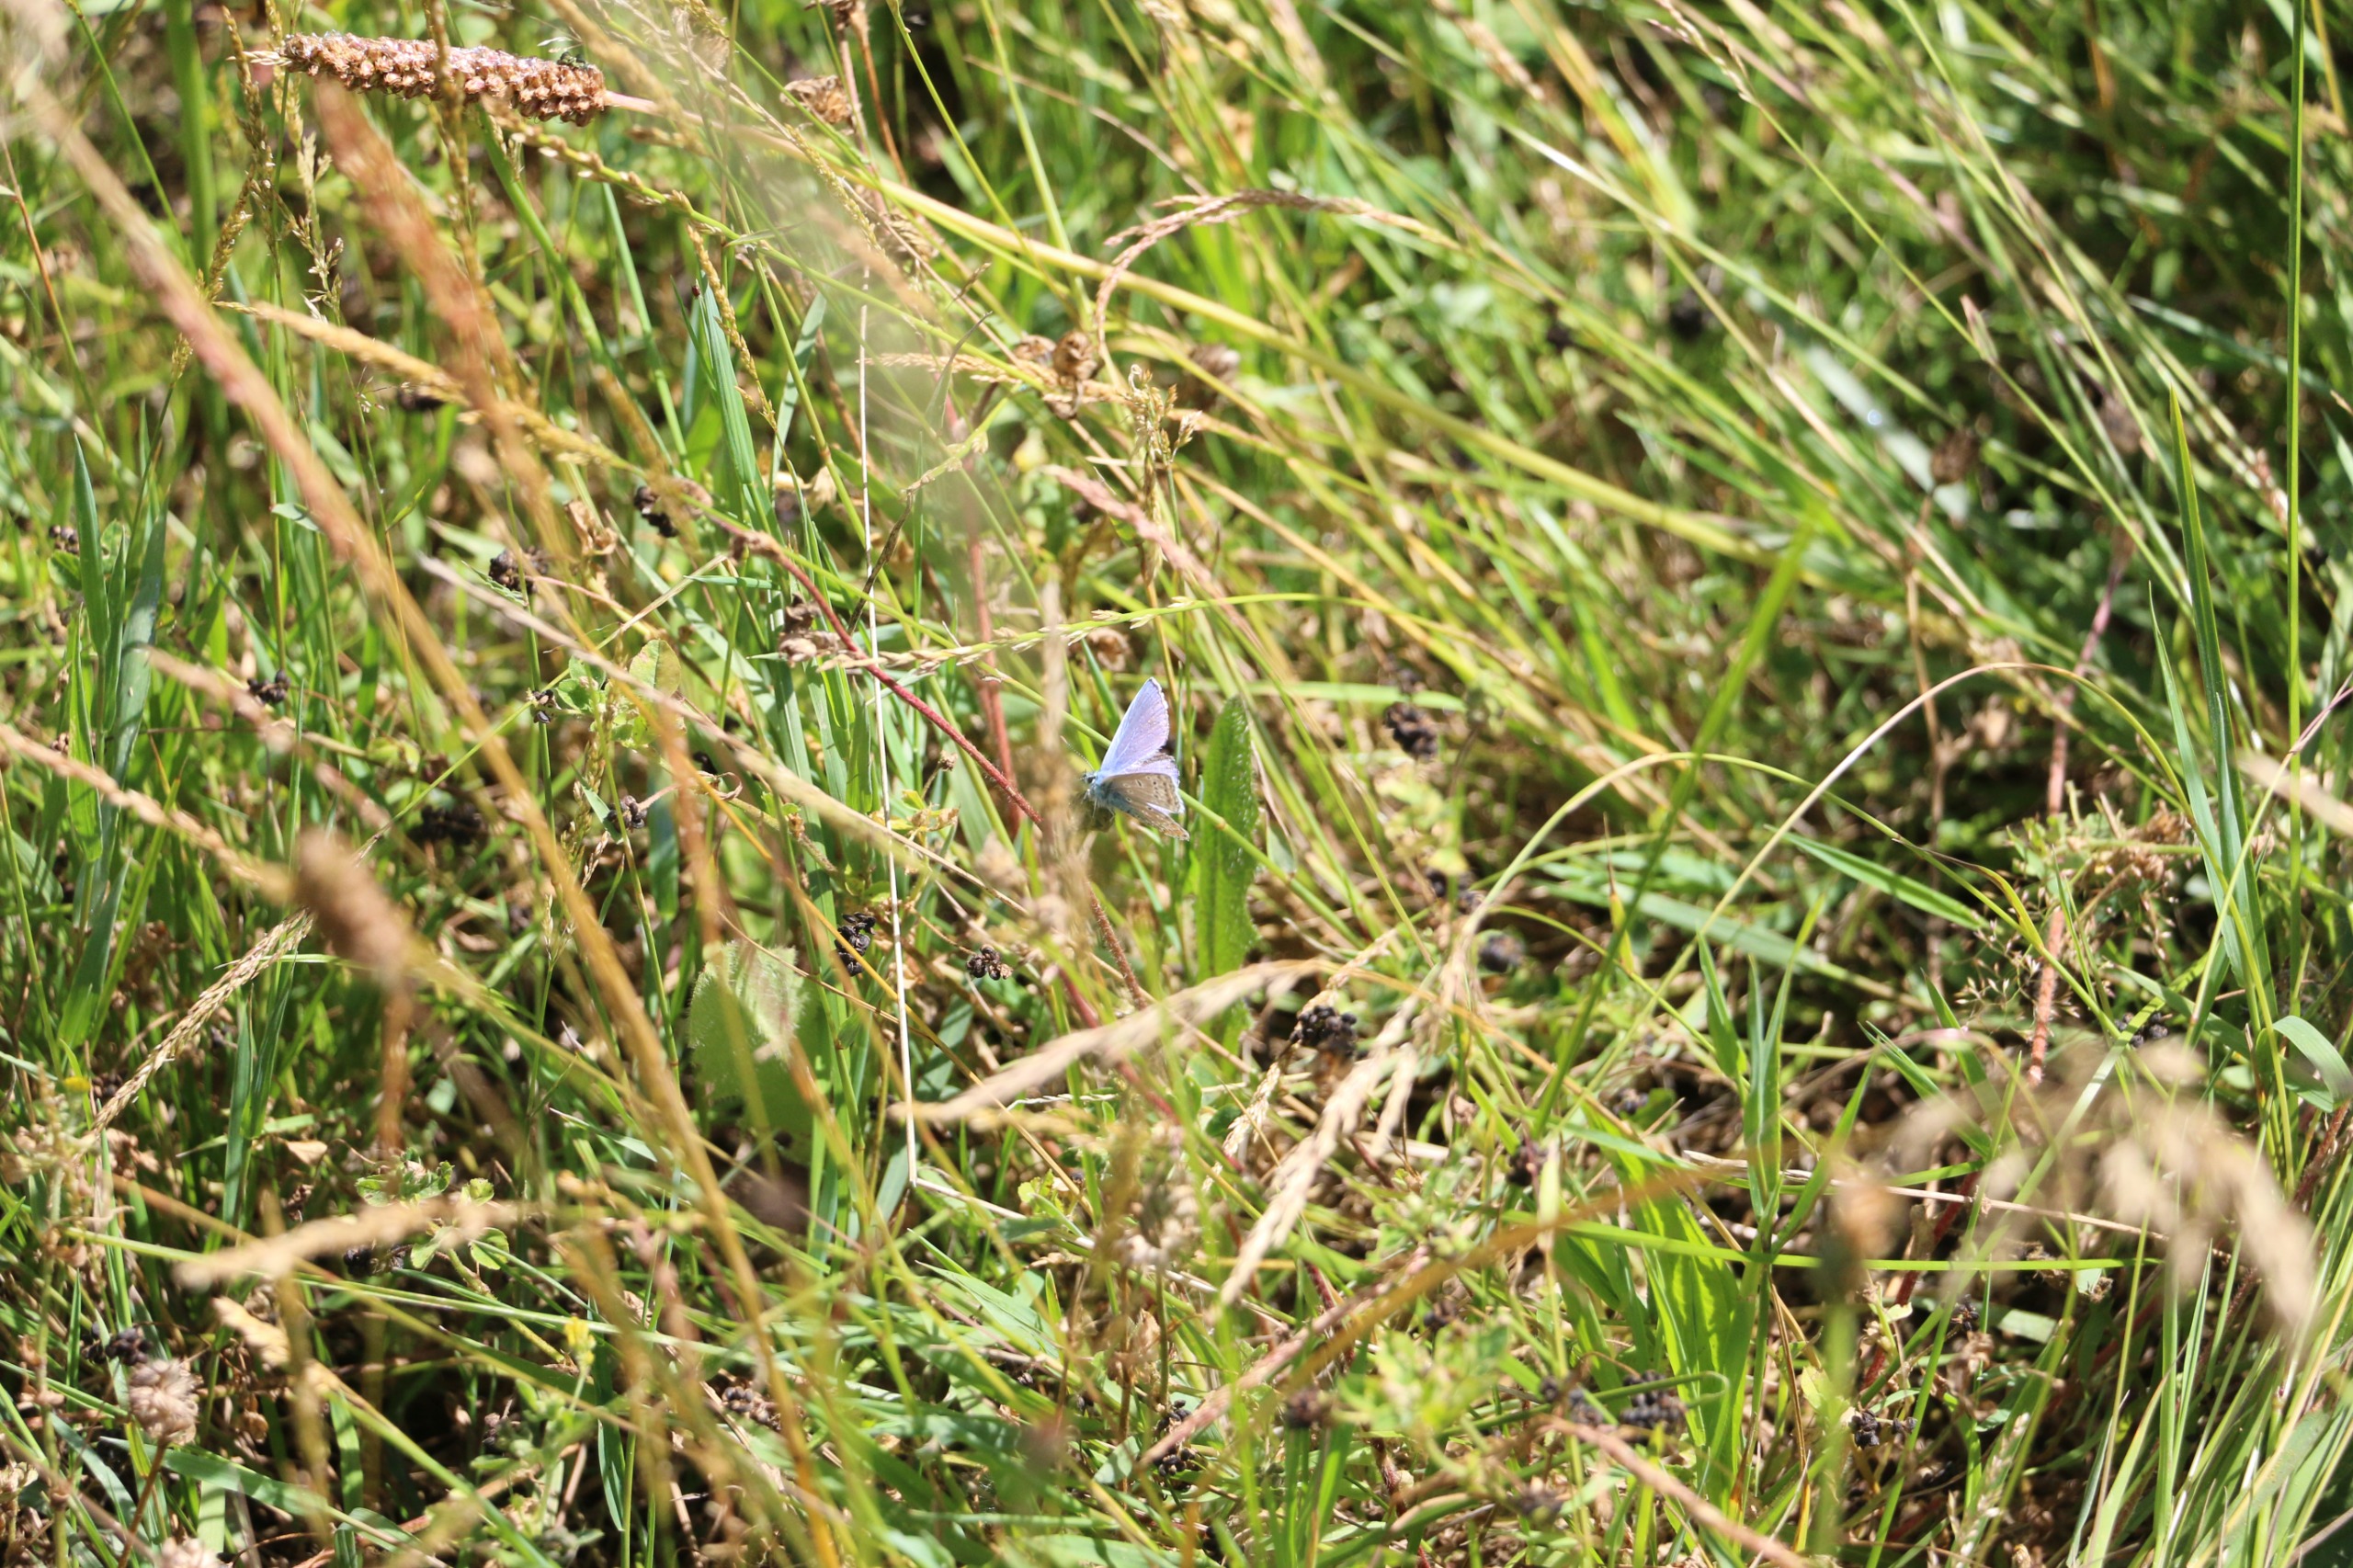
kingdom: Animalia
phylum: Arthropoda
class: Insecta
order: Lepidoptera
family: Lycaenidae
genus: Polyommatus
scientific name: Polyommatus icarus
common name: Almindelig blåfugl
